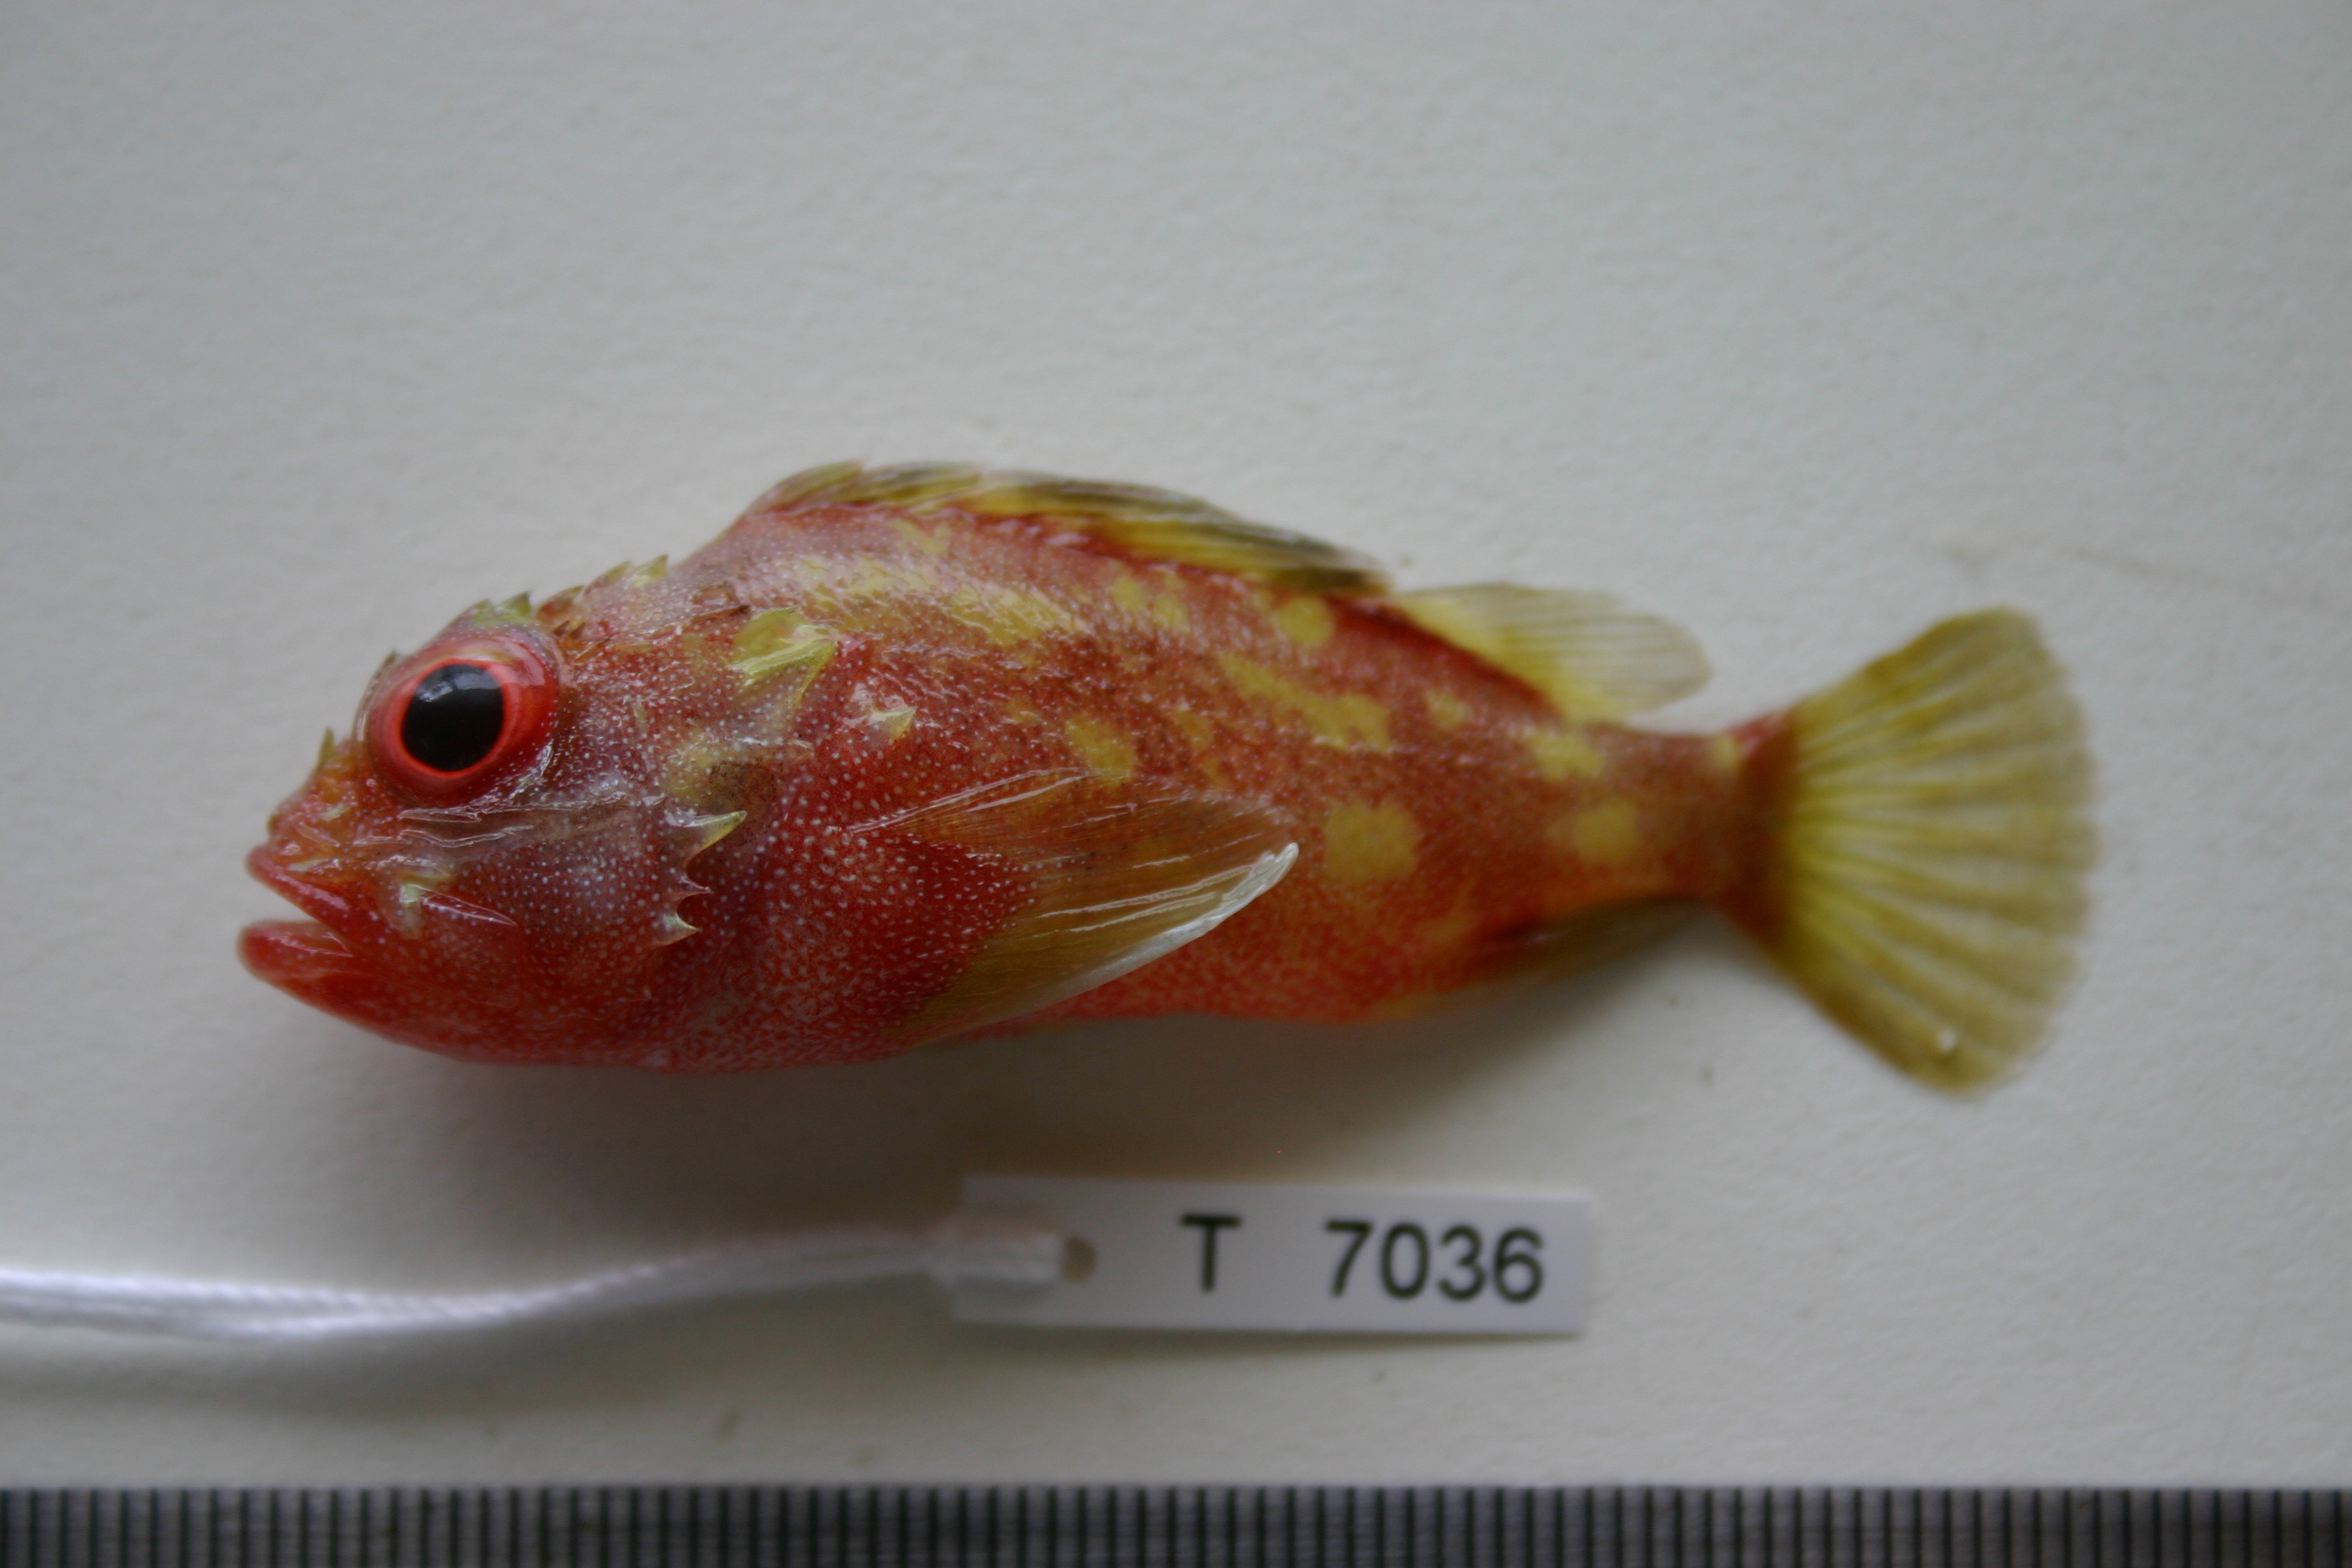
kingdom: Animalia
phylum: Chordata
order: Scorpaeniformes
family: Scorpaenidae
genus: Sebastapistes
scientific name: Sebastapistes cyanostigma
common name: Yellowspotted scorpionfish
